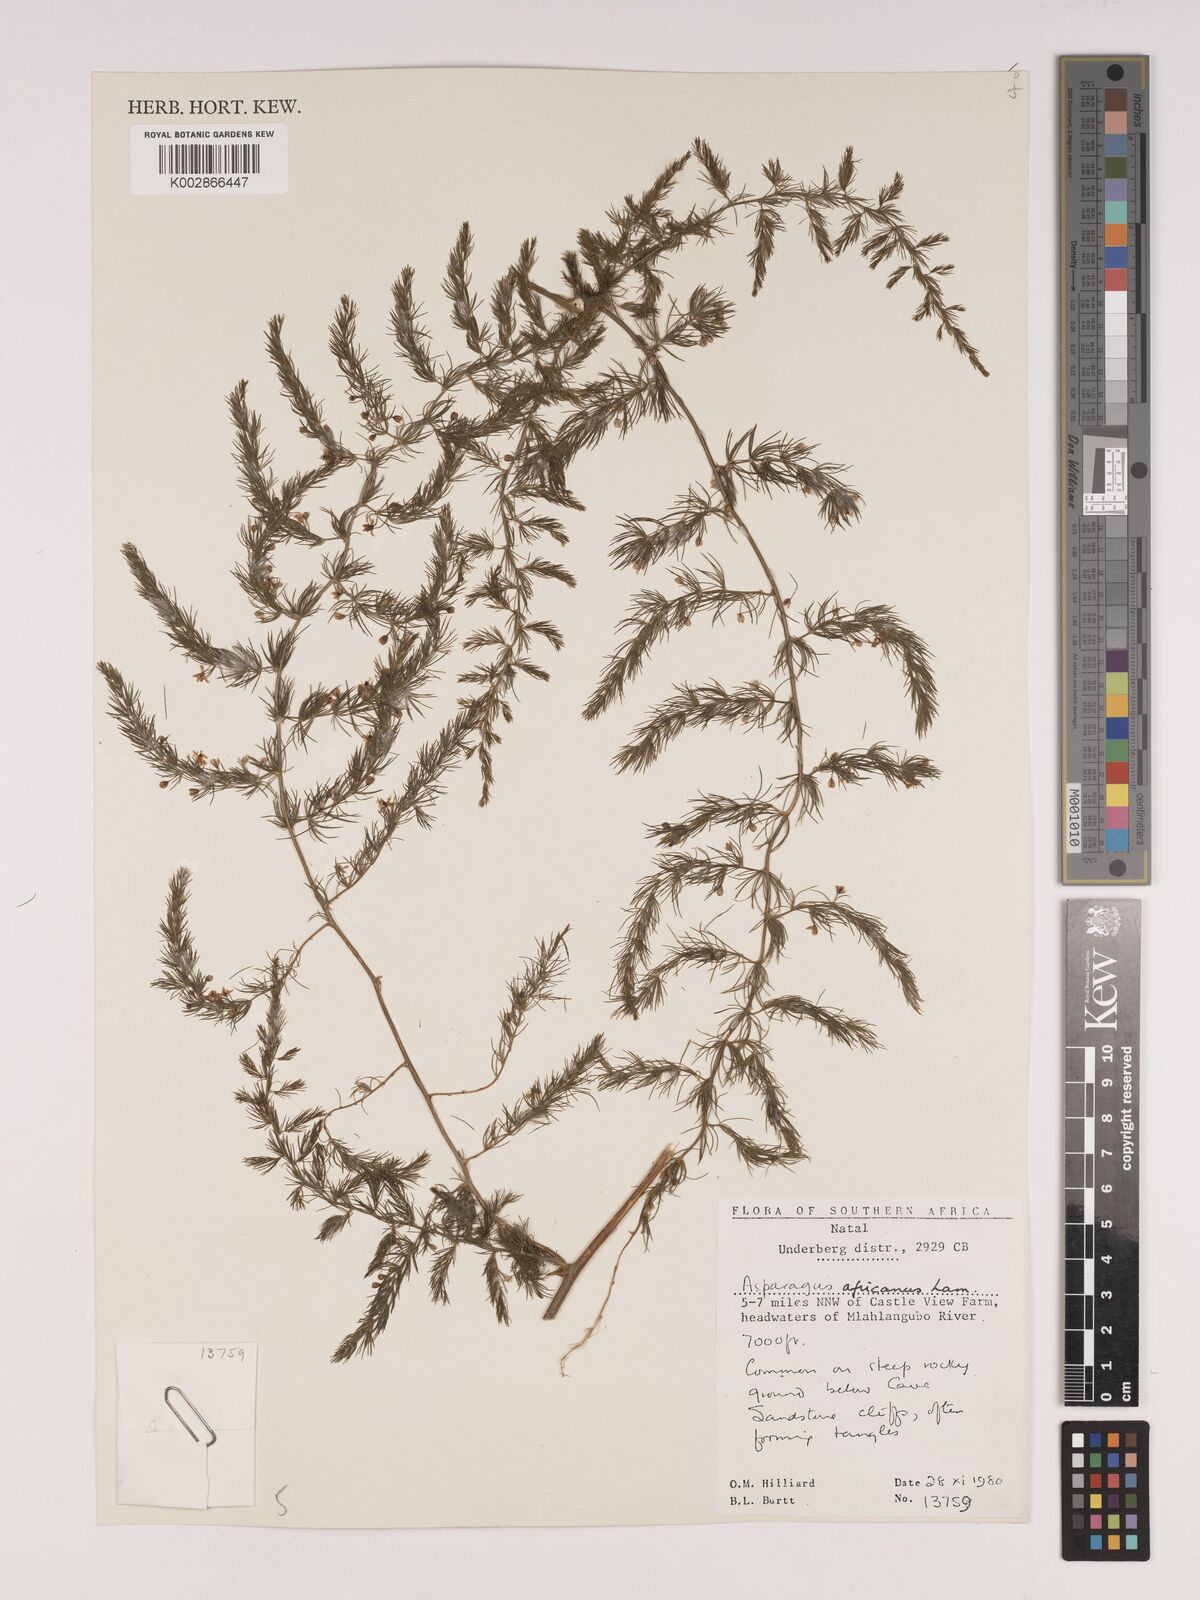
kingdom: Plantae
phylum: Tracheophyta
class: Liliopsida
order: Asparagales
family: Asparagaceae
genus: Asparagus
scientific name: Asparagus africanus
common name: Asparagus-fern
